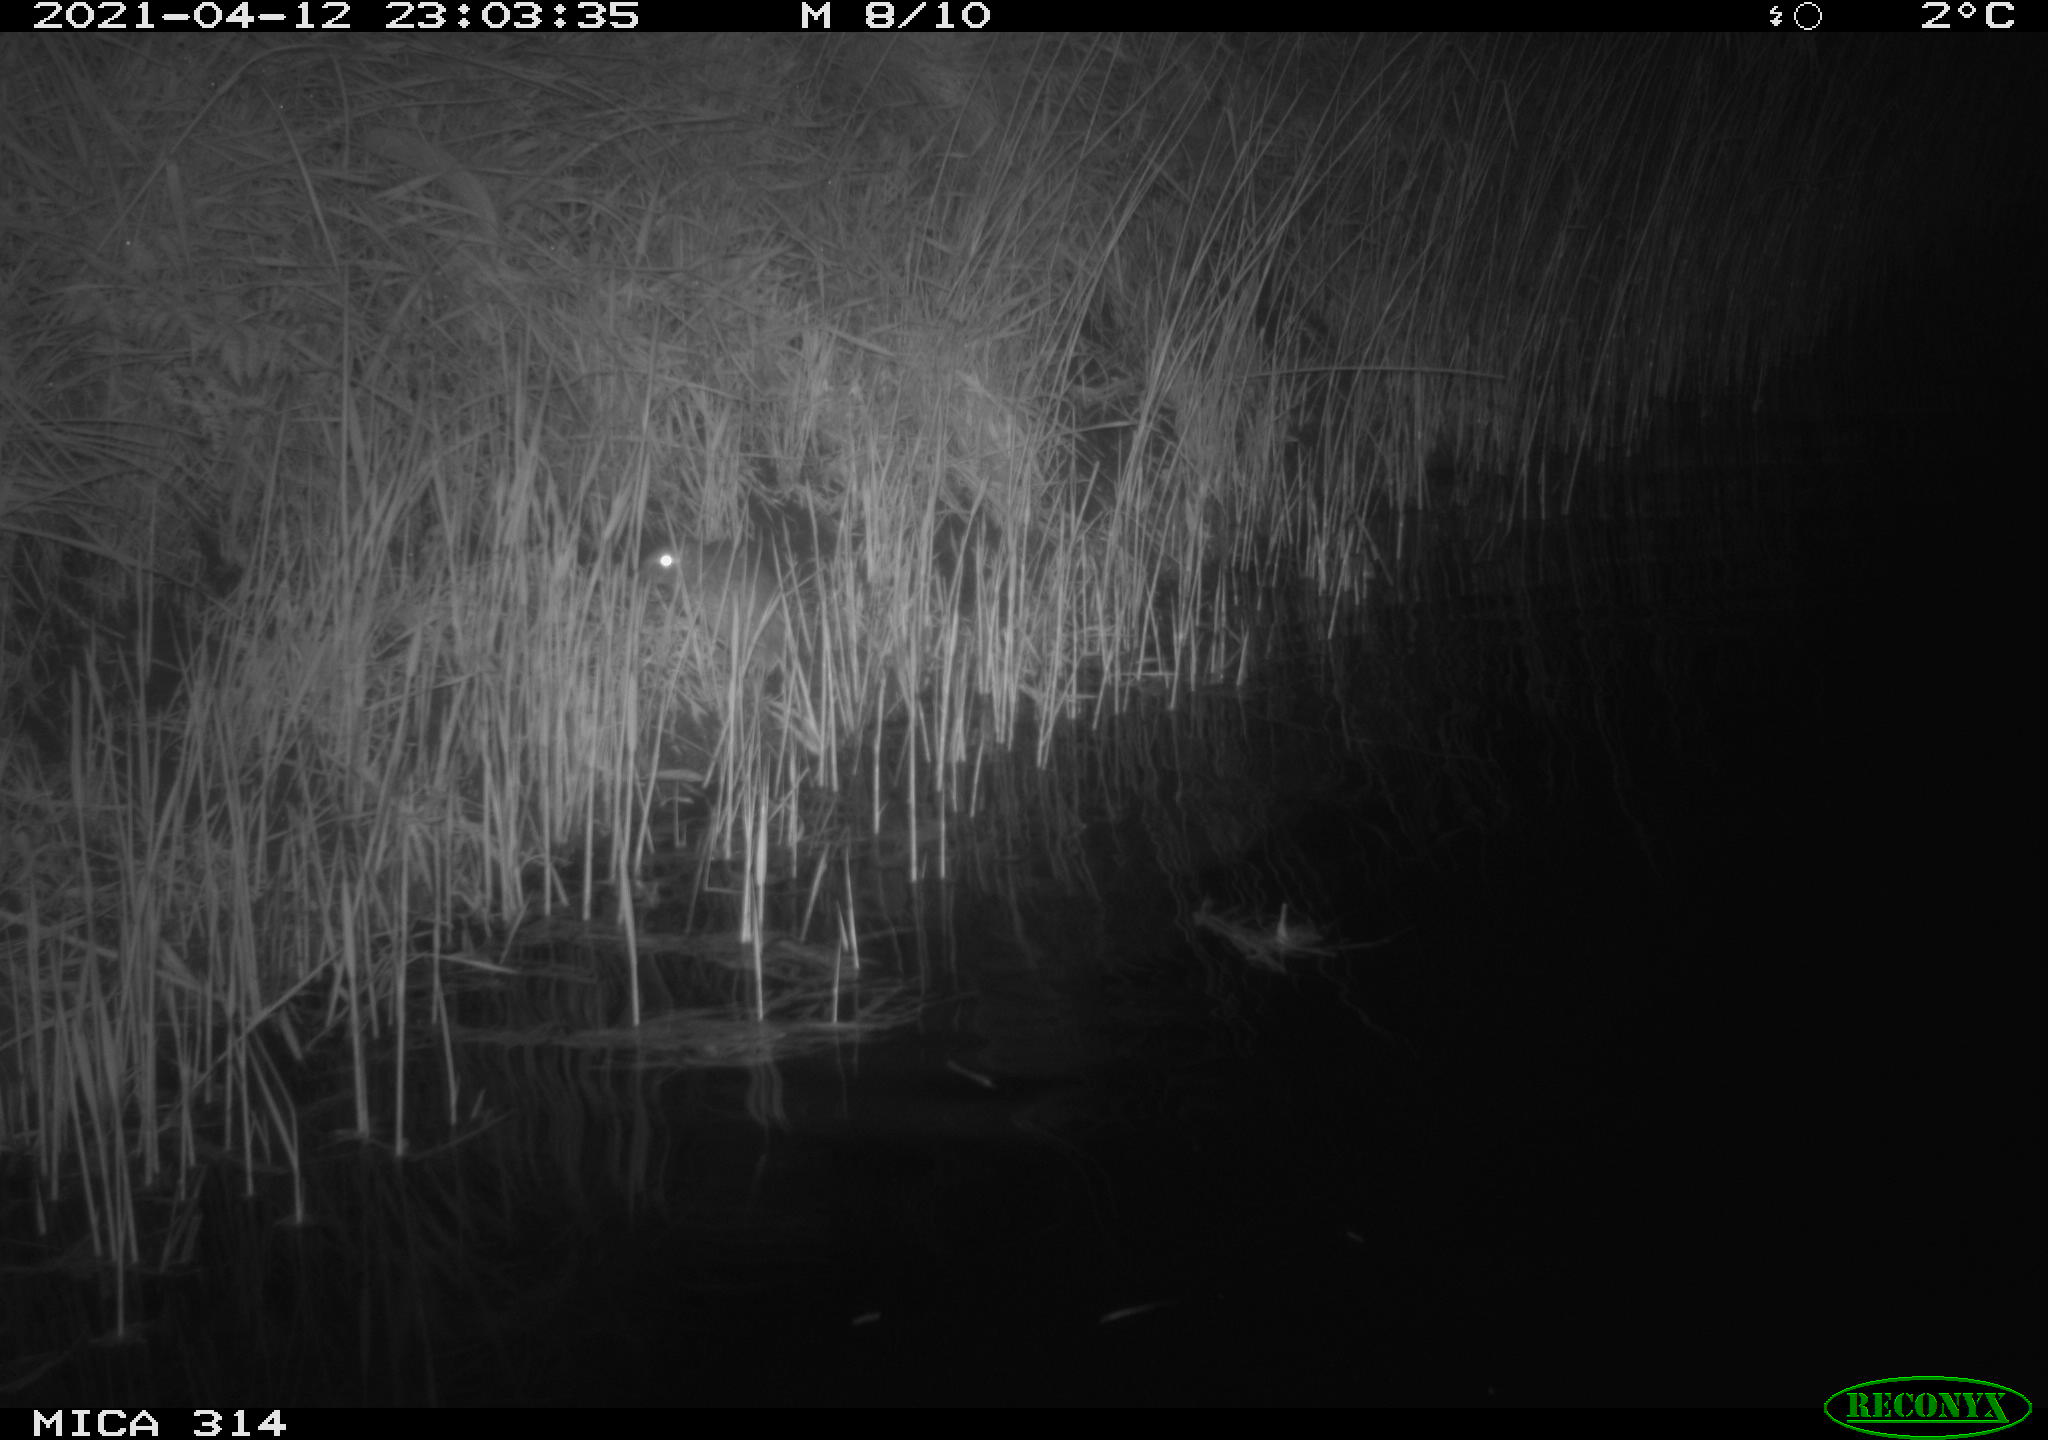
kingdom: Animalia
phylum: Chordata
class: Mammalia
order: Rodentia
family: Muridae
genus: Rattus
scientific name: Rattus norvegicus
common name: Brown rat
